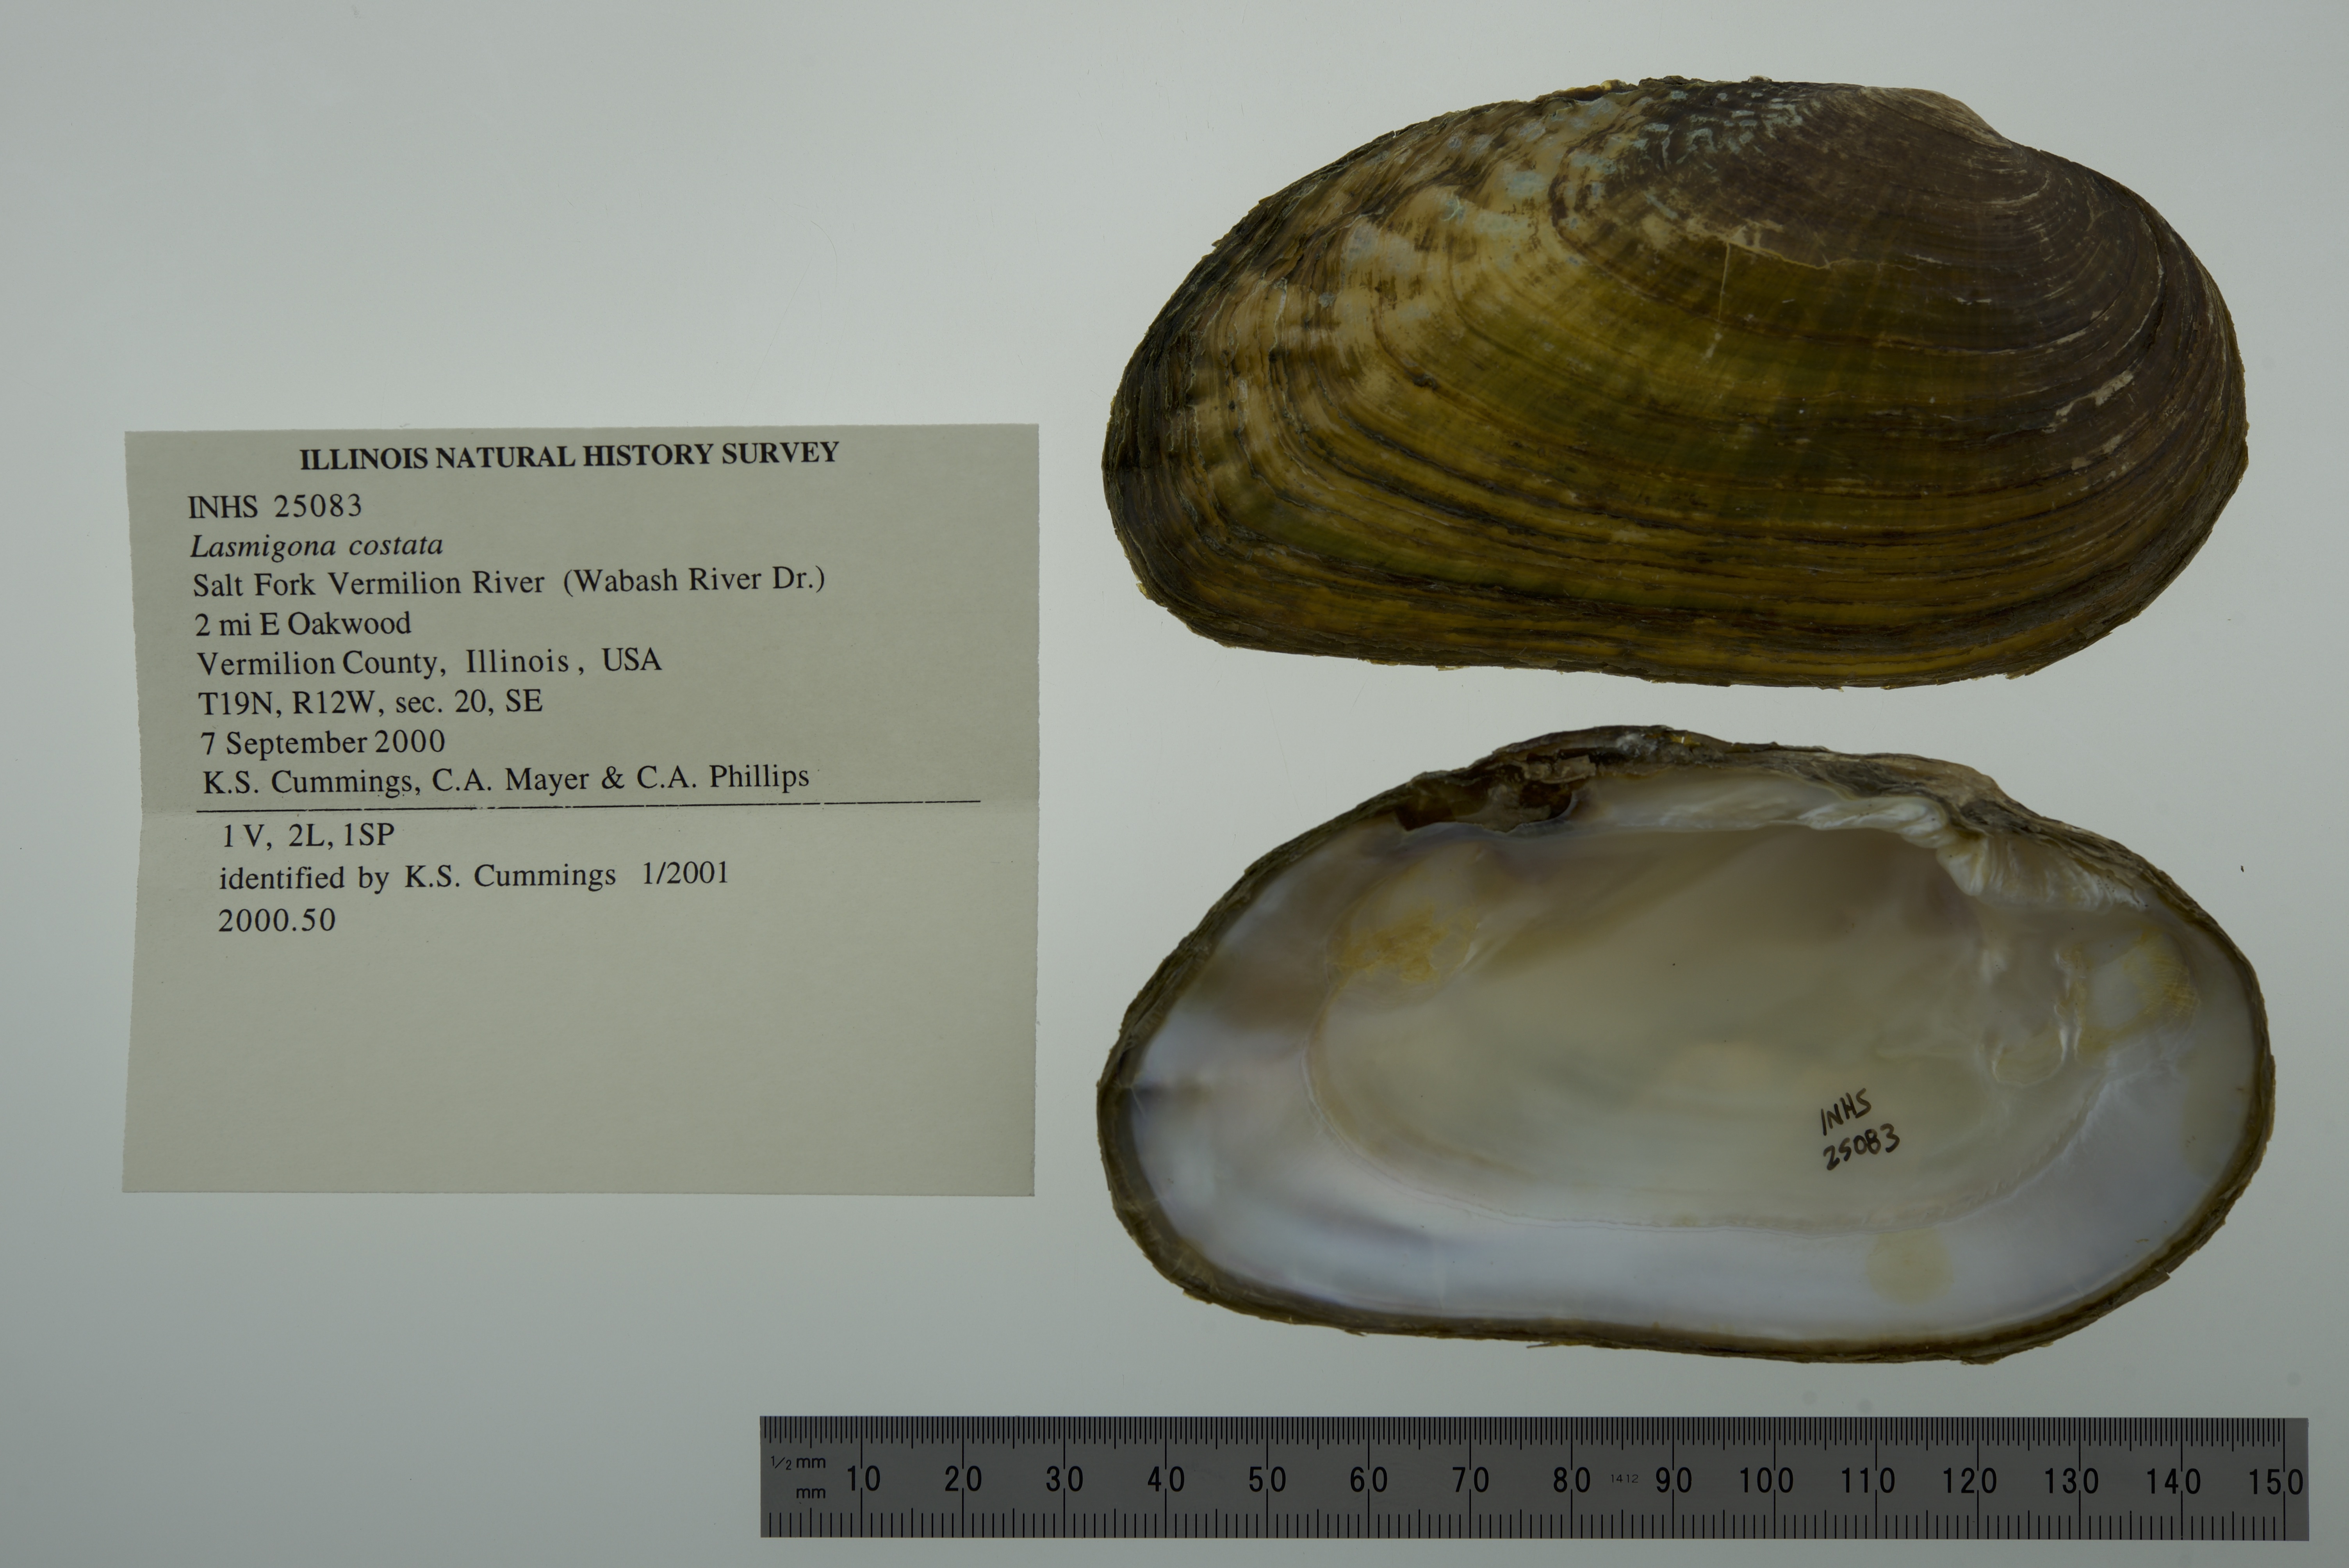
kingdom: Animalia
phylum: Mollusca
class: Bivalvia
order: Unionida
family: Unionidae
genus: Lasmigona
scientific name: Lasmigona costata
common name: Flutedshell
